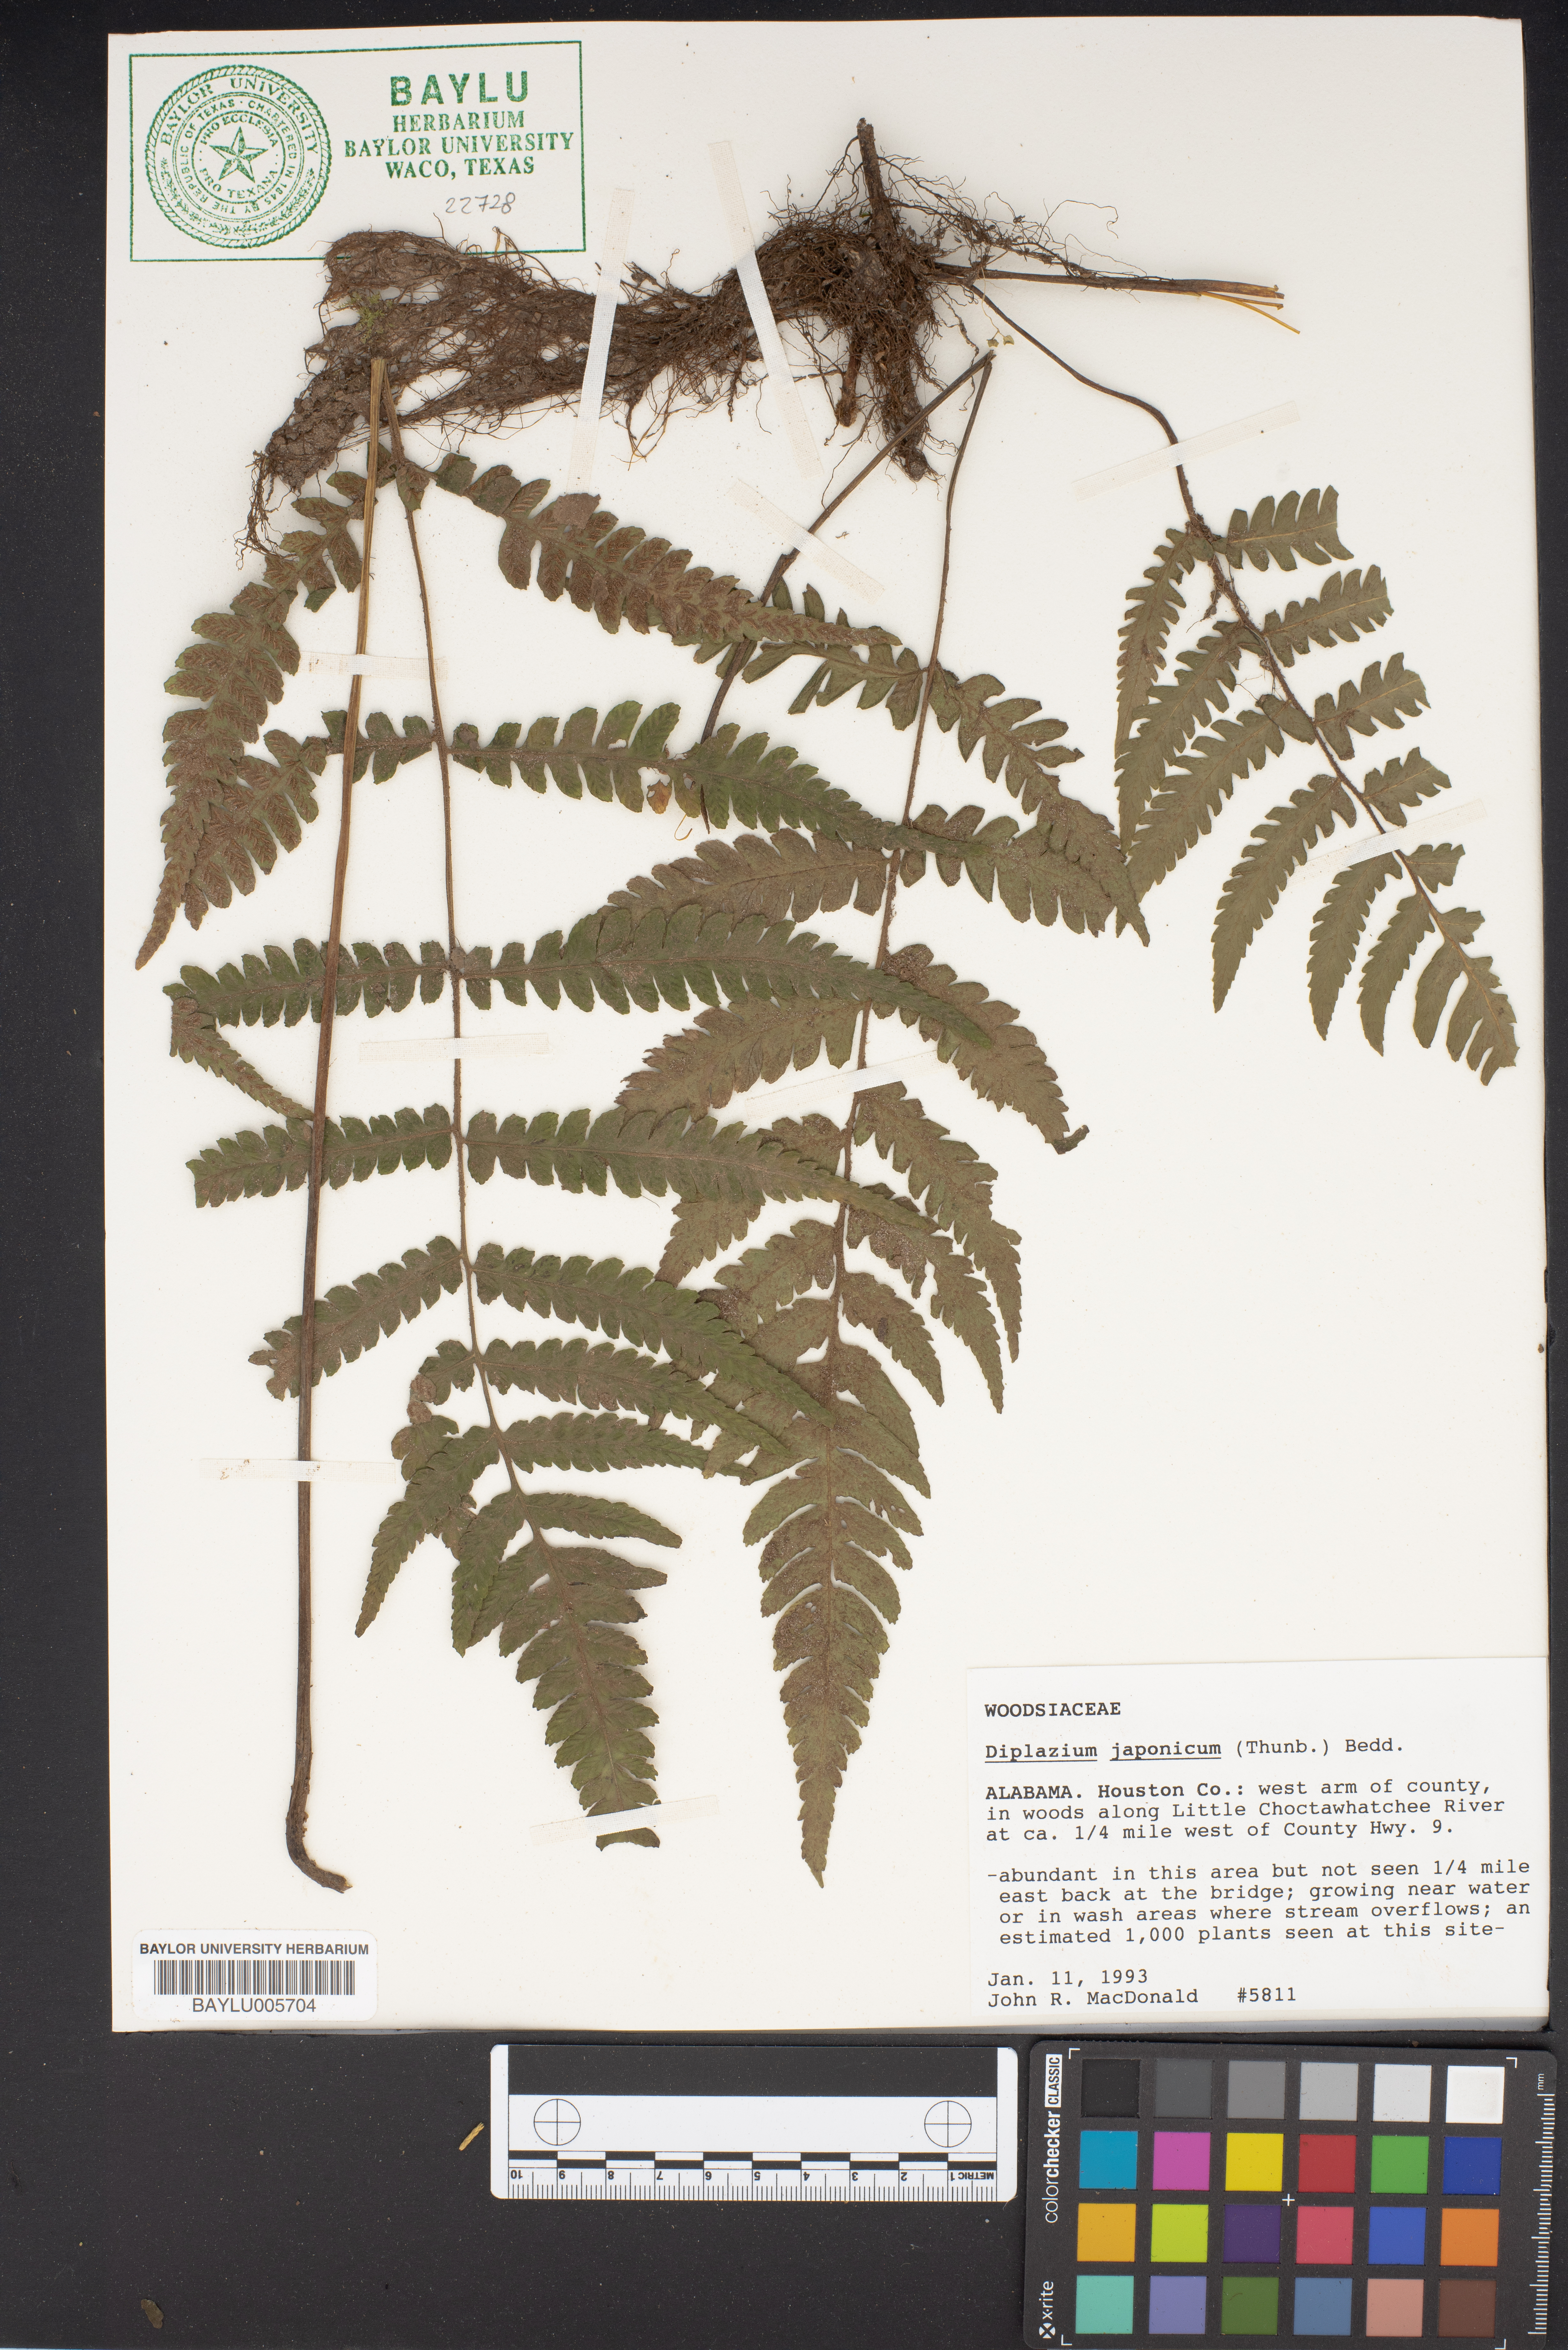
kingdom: Plantae
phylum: Tracheophyta
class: Polypodiopsida
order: Polypodiales
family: Athyriaceae
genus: Diplazium
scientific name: Diplazium japonicum
